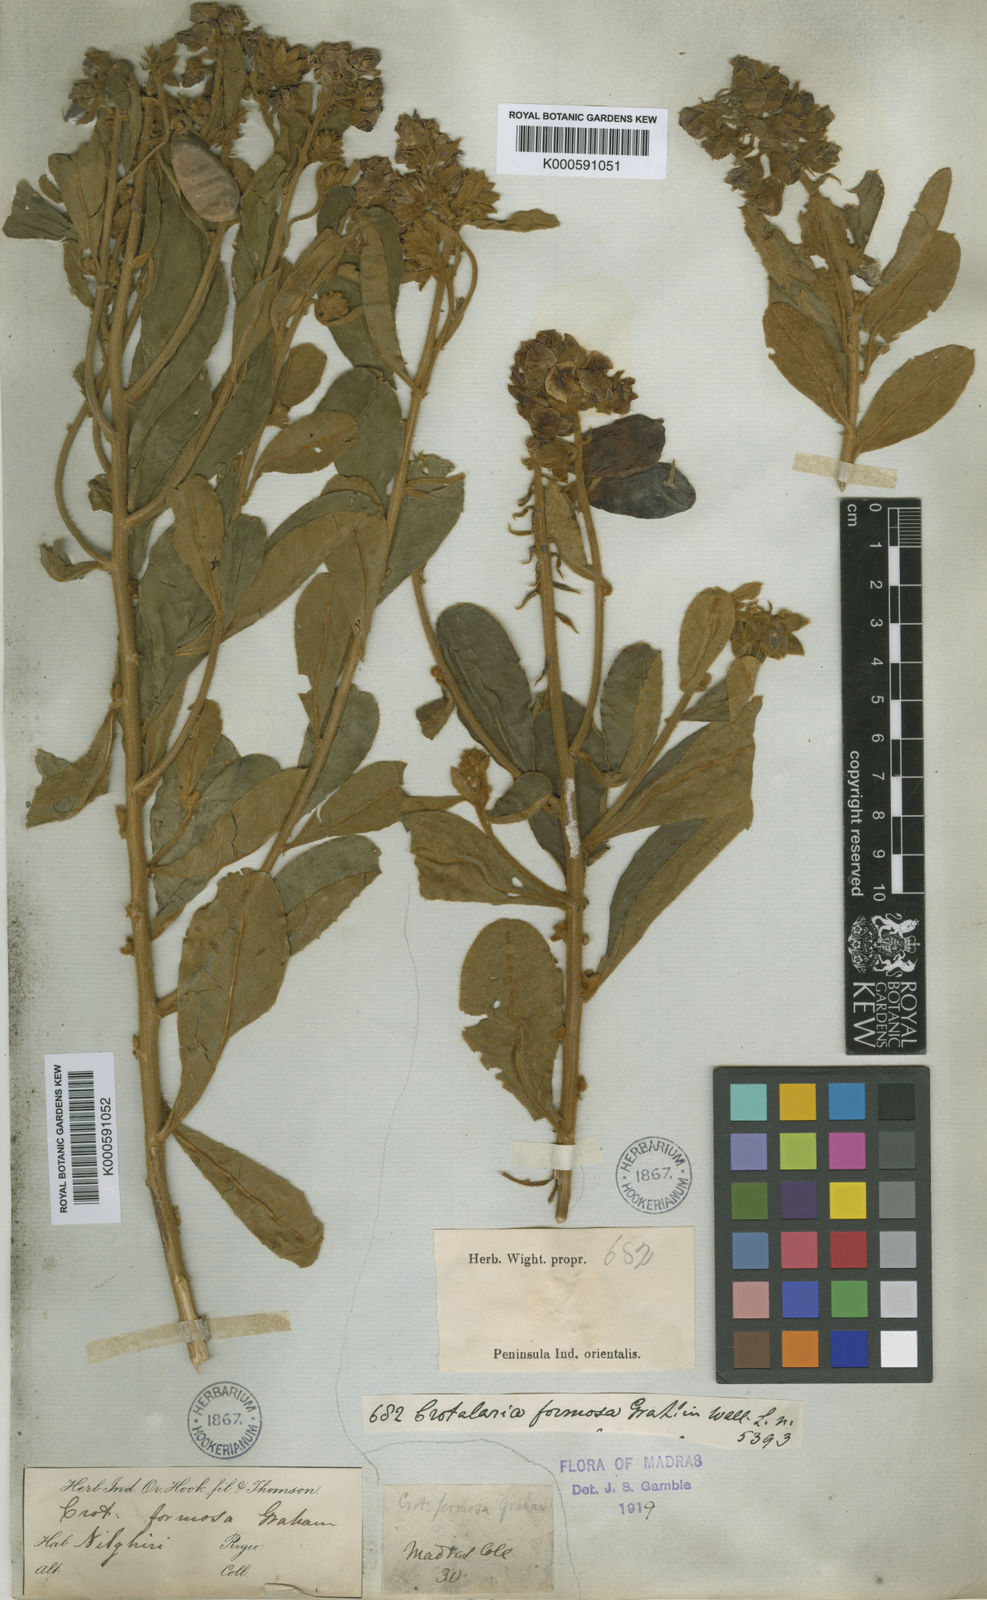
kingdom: Plantae
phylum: Tracheophyta
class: Magnoliopsida
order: Fabales
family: Fabaceae
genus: Crotalaria
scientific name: Crotalaria
